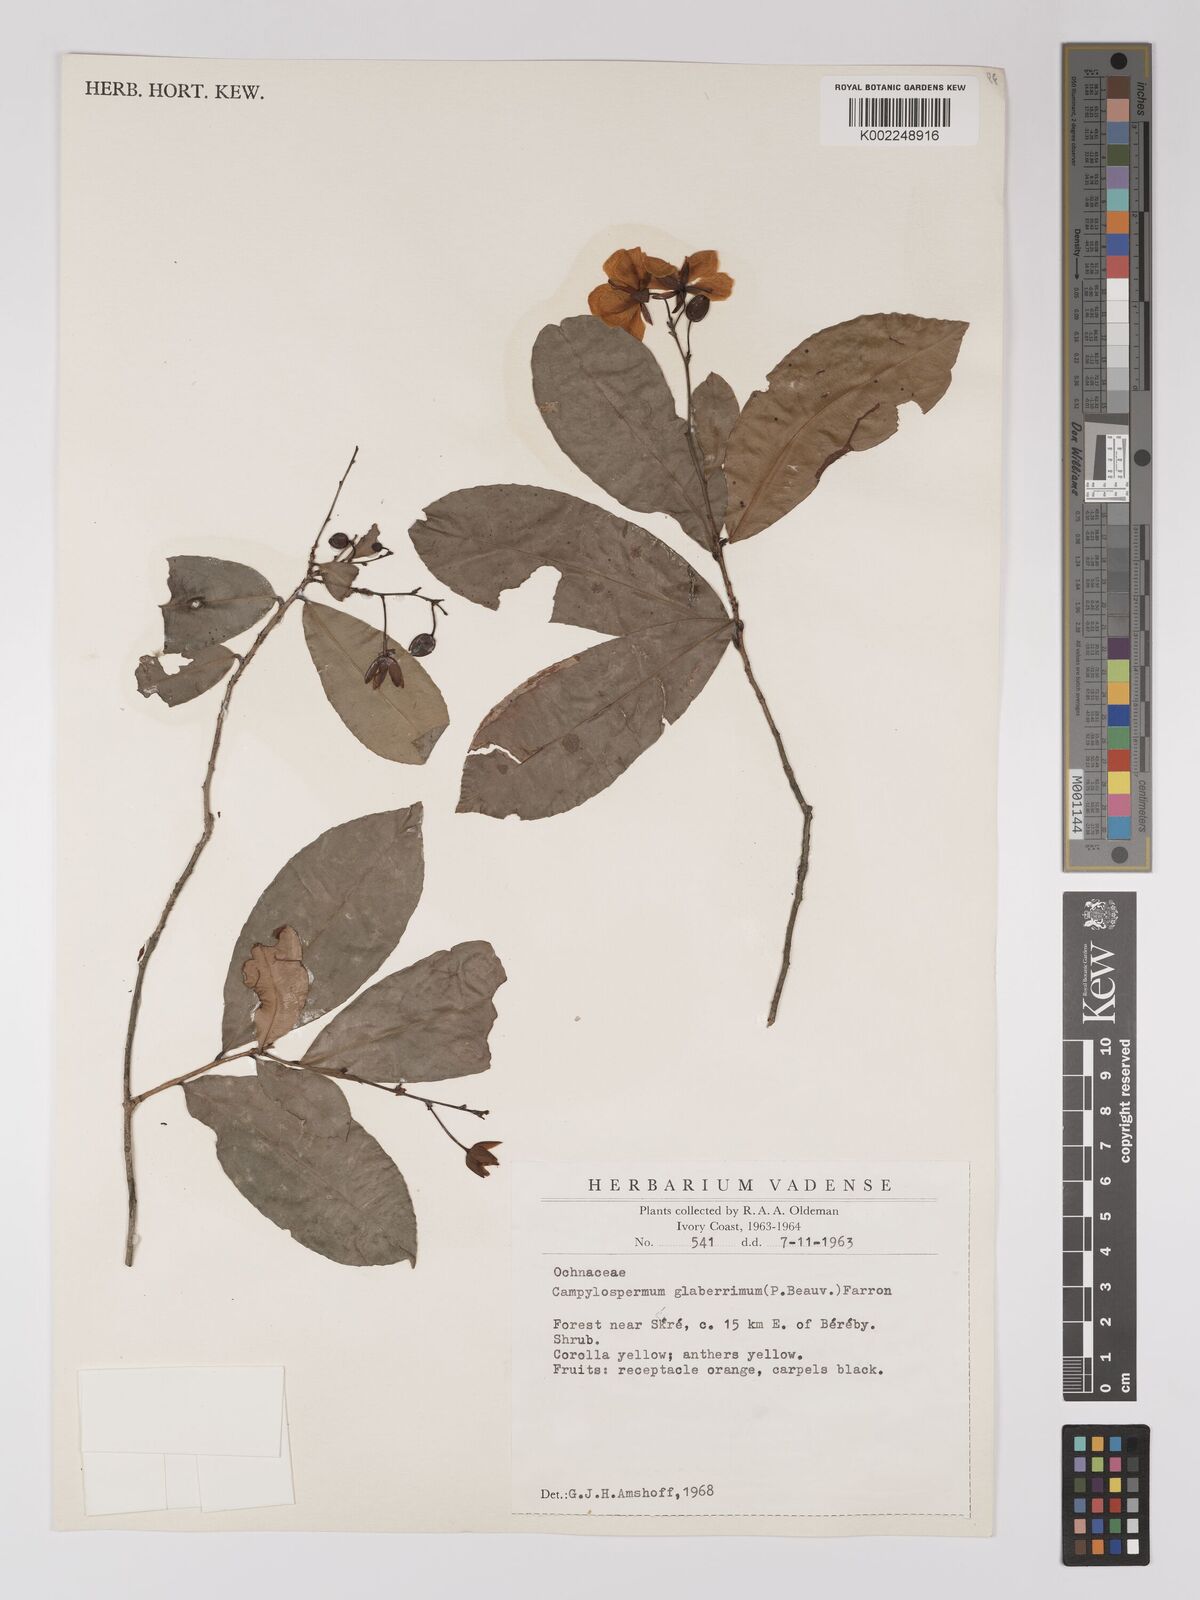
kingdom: Plantae
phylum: Tracheophyta
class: Magnoliopsida
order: Malpighiales
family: Ochnaceae
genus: Campylospermum
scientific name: Campylospermum glaberrimum
